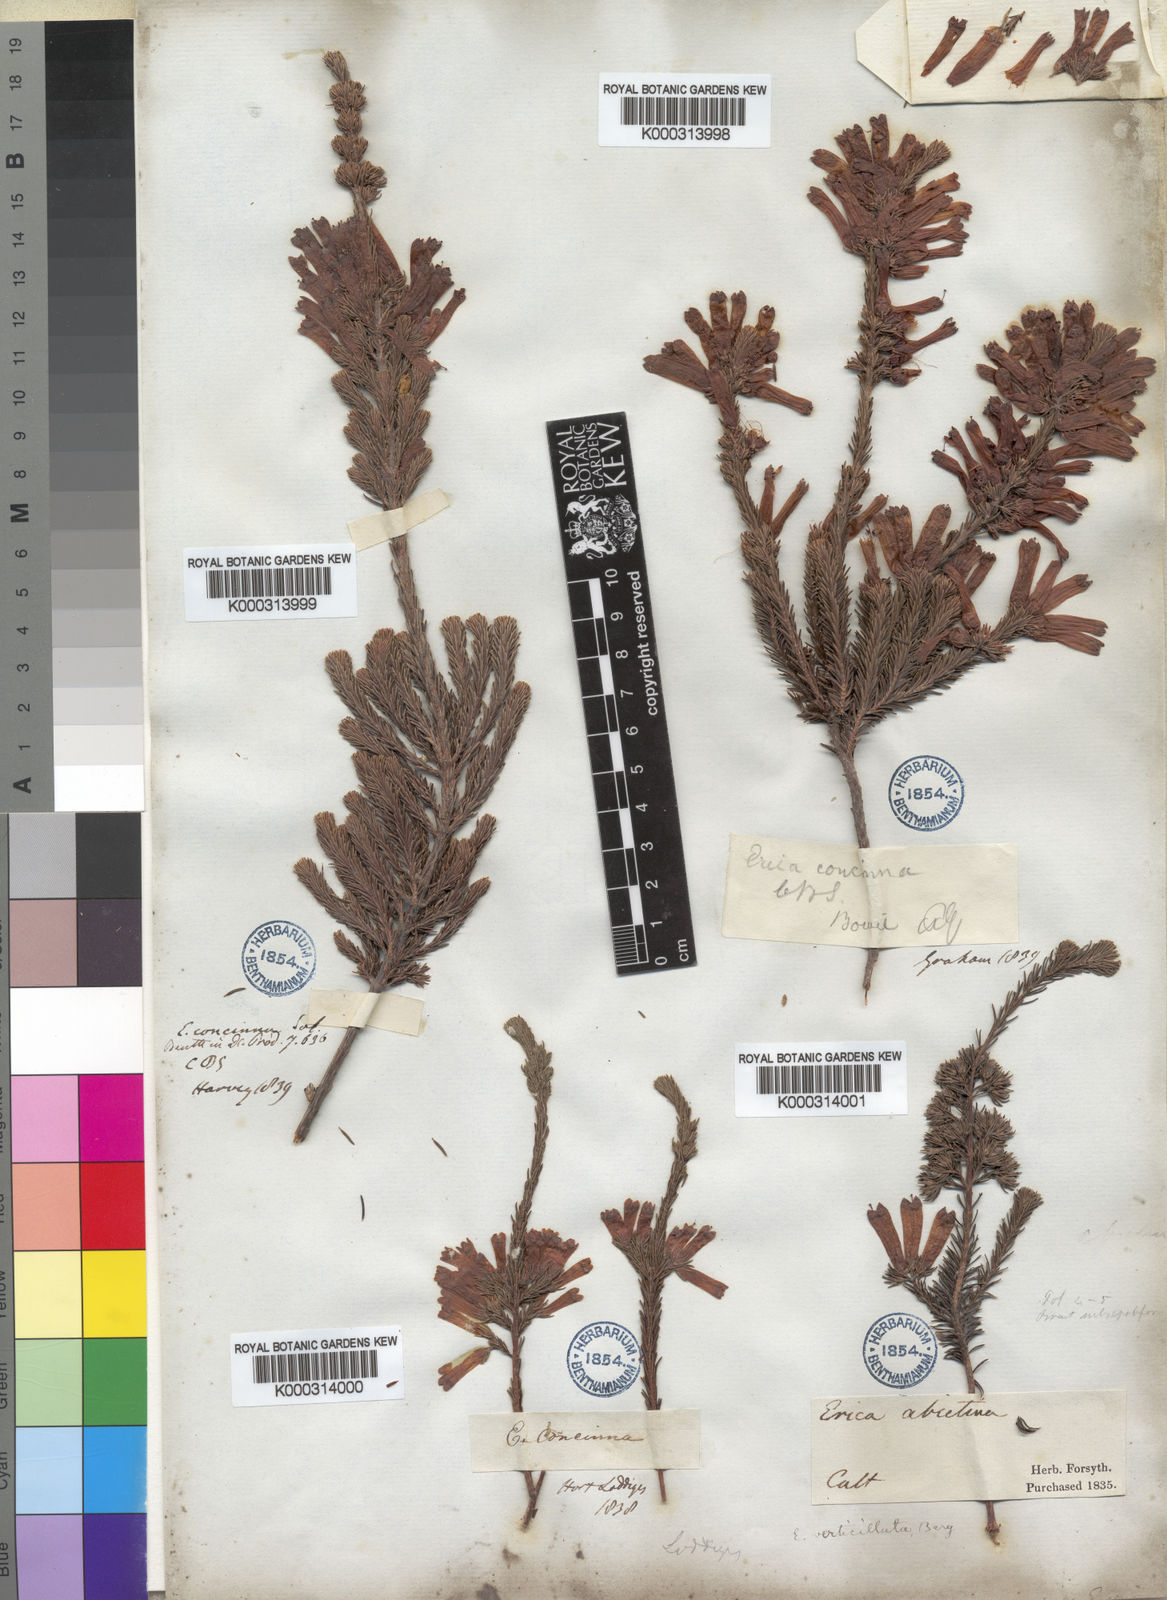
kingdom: Plantae
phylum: Tracheophyta
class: Magnoliopsida
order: Ericales
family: Ericaceae
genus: Erica
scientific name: Erica verticillata
